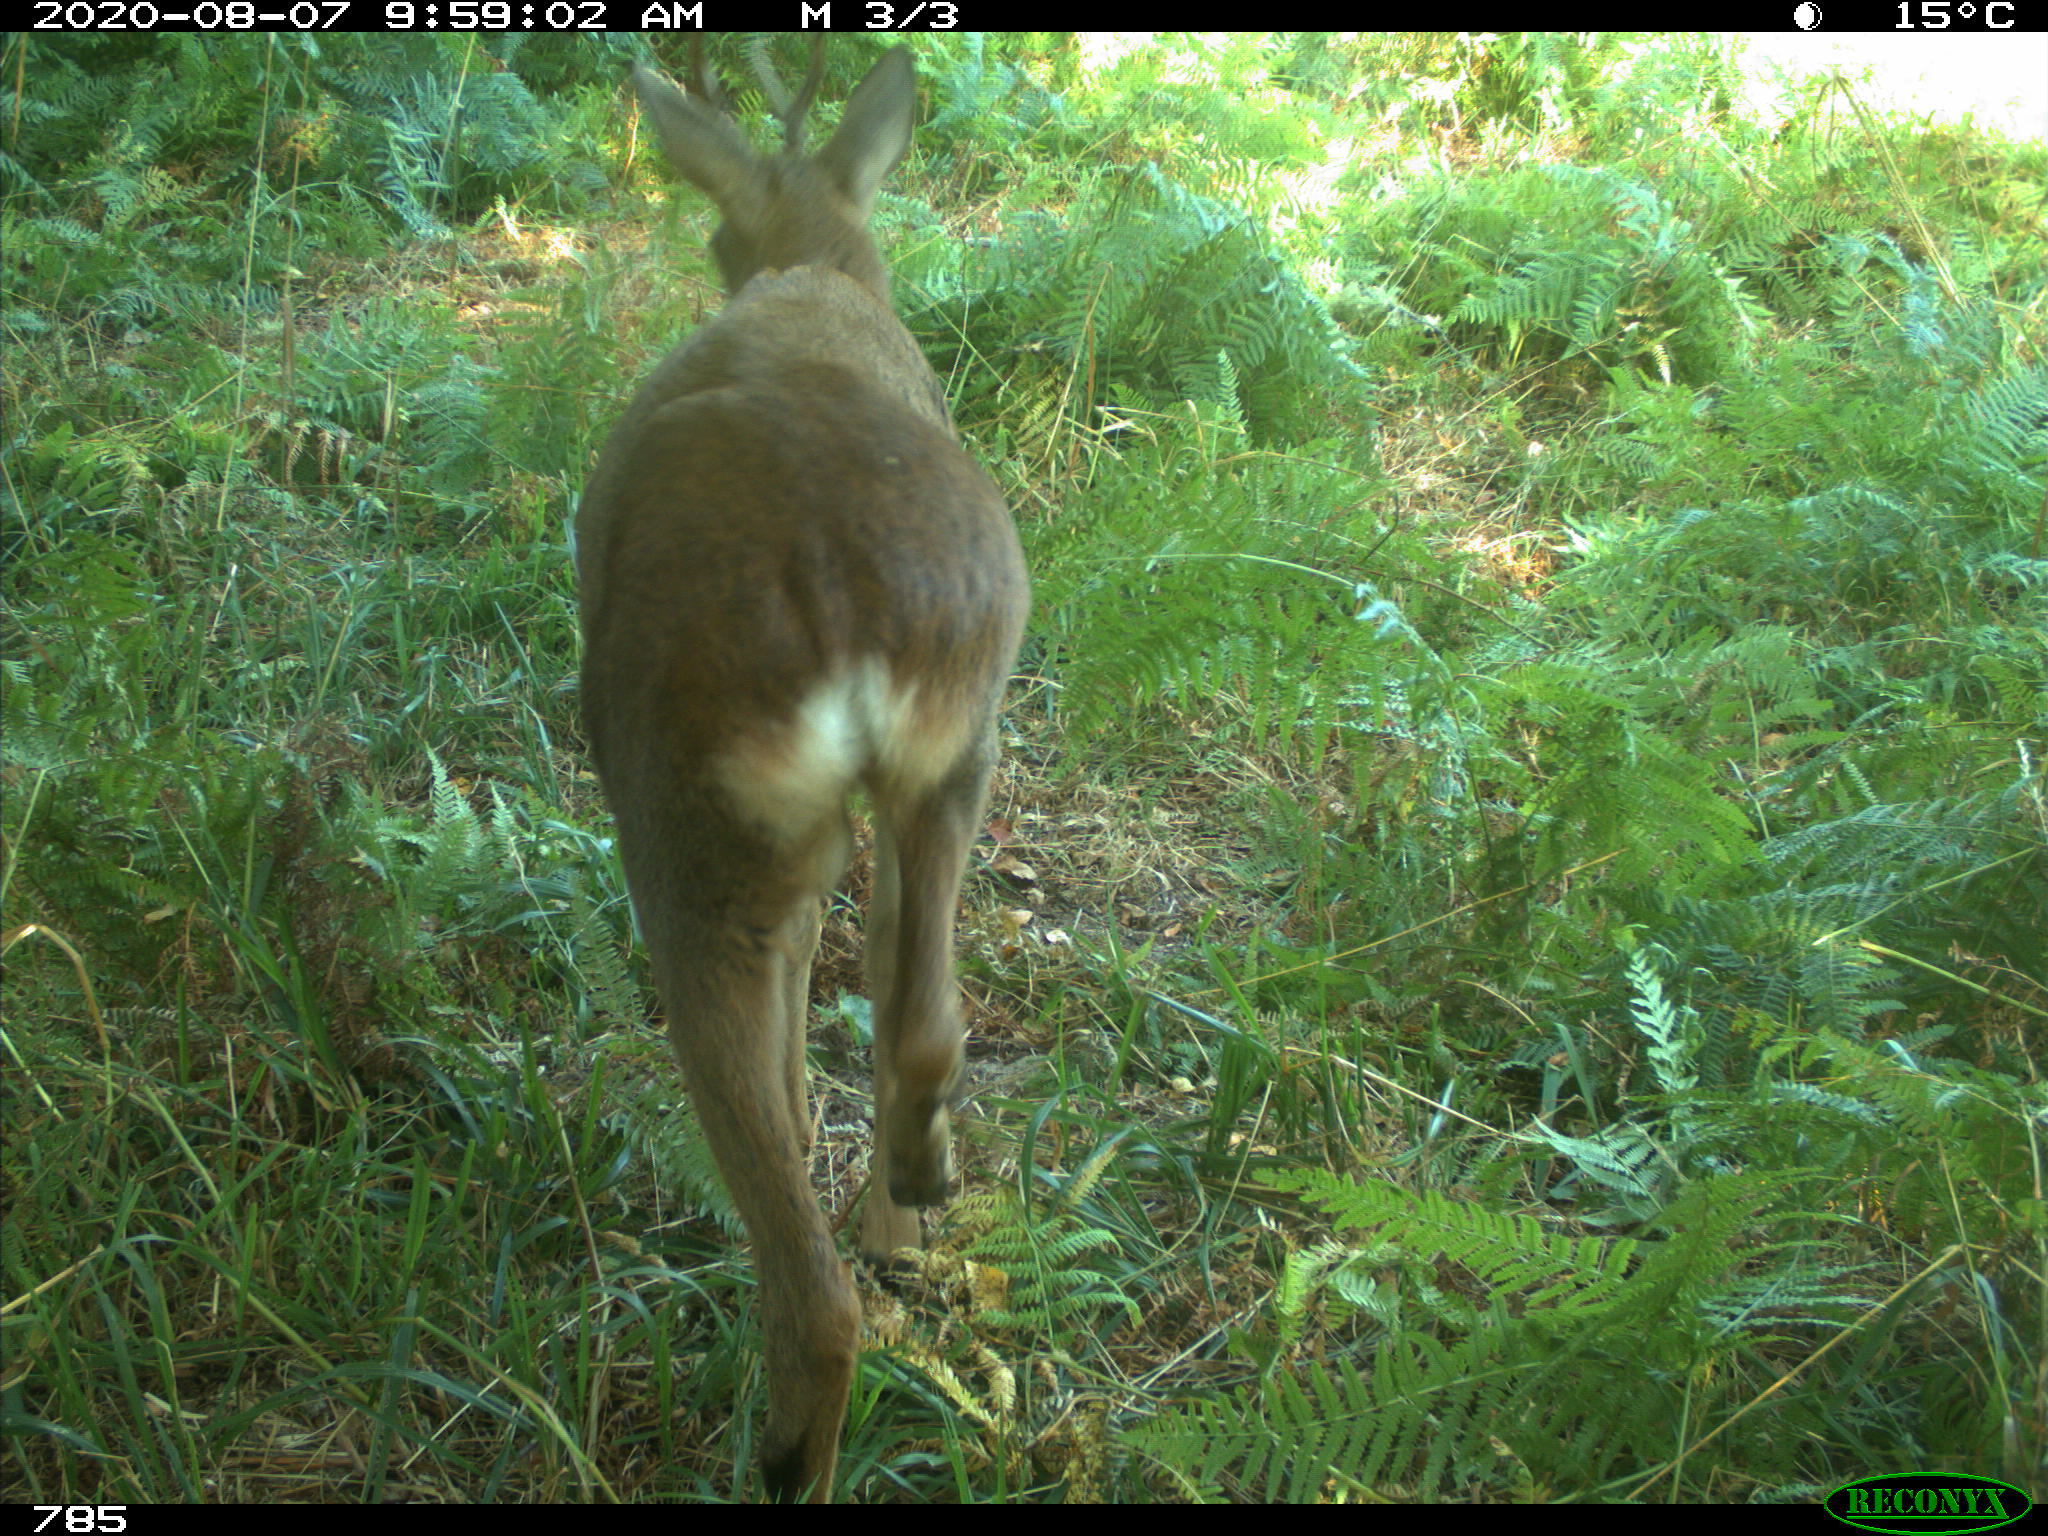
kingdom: Animalia
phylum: Chordata
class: Mammalia
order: Artiodactyla
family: Cervidae
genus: Capreolus
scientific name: Capreolus capreolus
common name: Western roe deer
